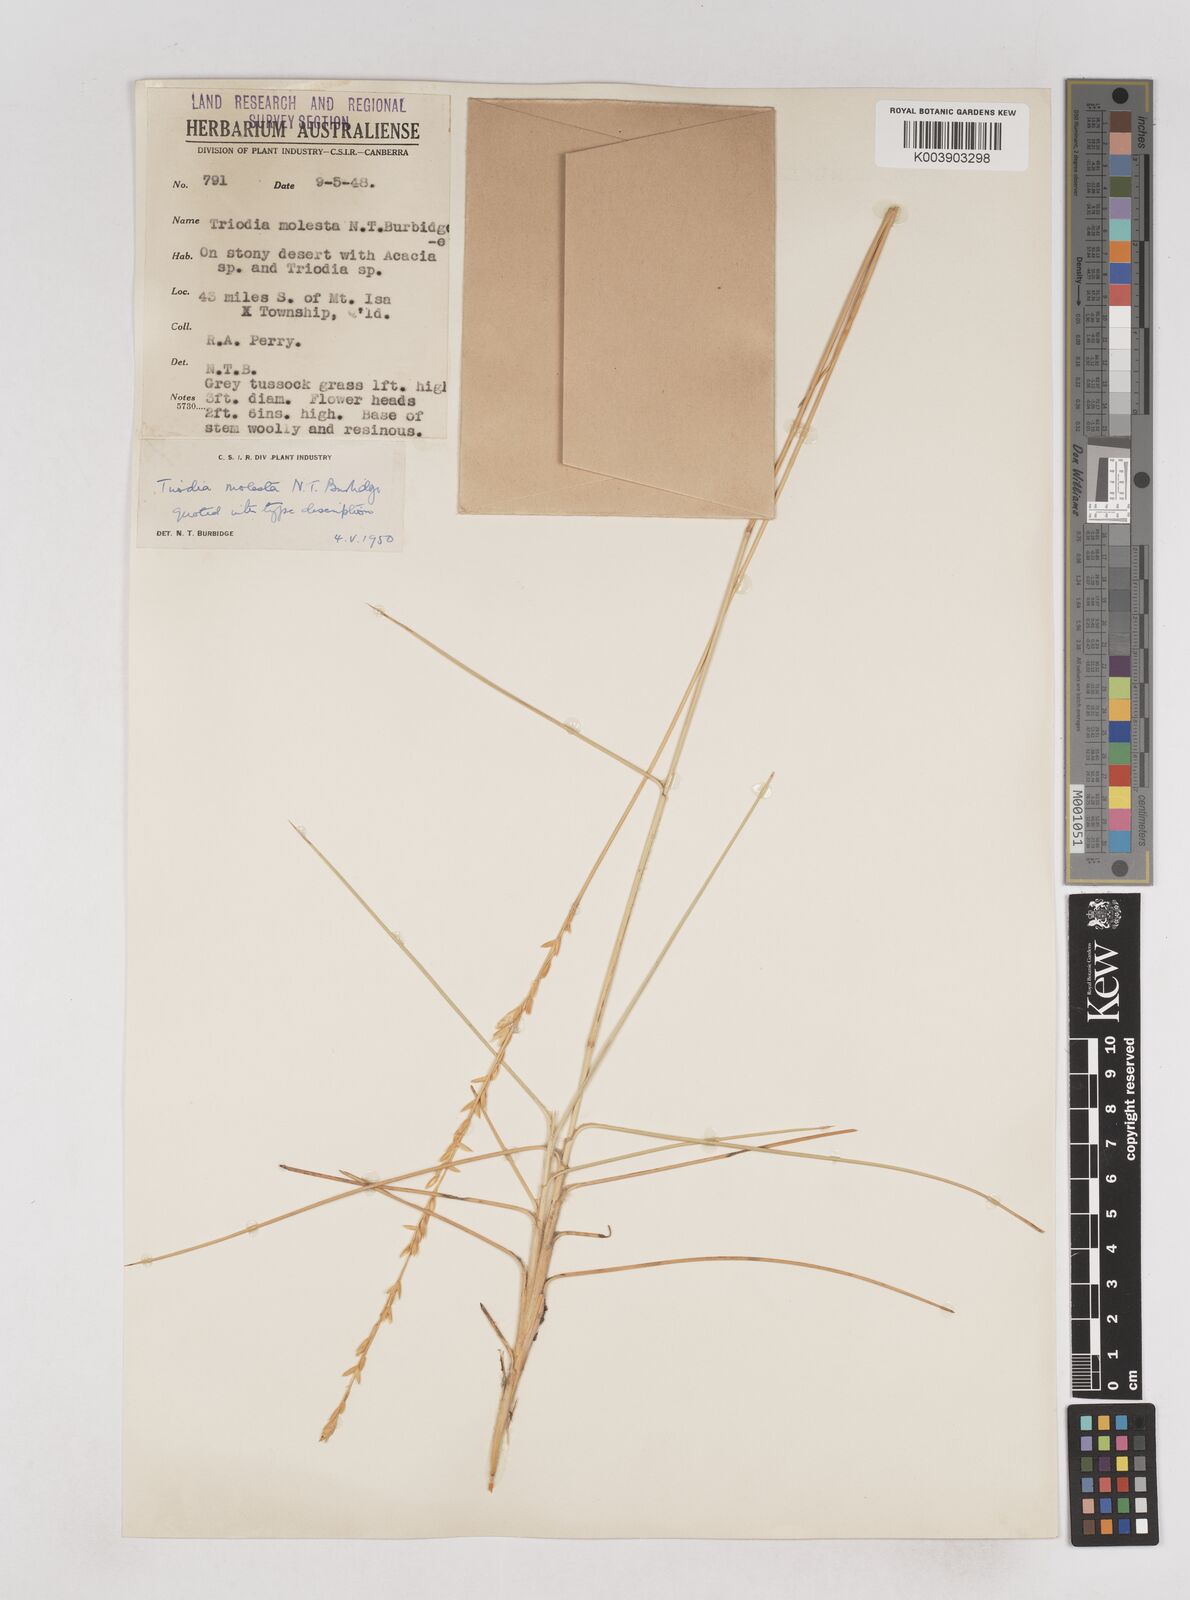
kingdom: Plantae
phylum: Tracheophyta
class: Liliopsida
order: Poales
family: Poaceae
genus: Triodia
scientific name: Triodia molesta
